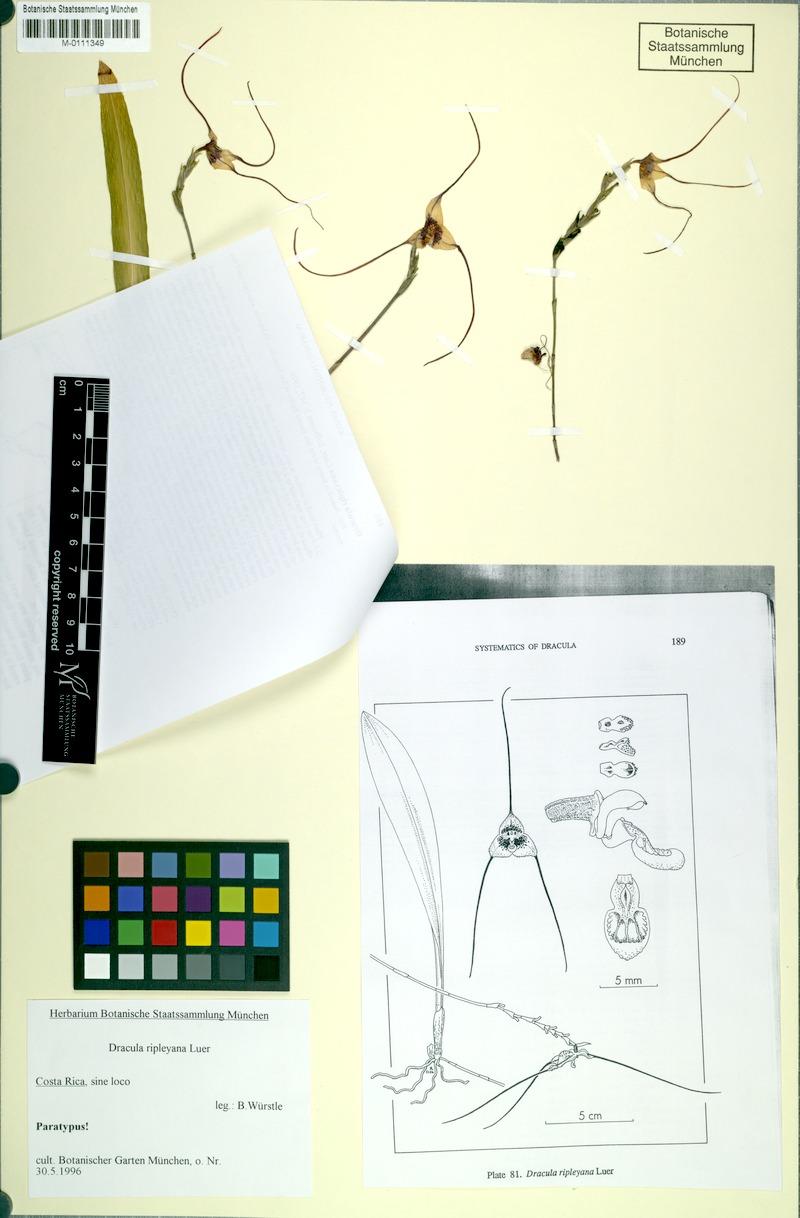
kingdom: Plantae
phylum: Tracheophyta
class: Liliopsida
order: Asparagales
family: Orchidaceae
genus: Dracula
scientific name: Dracula ripleyana
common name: Ripley's dracula
